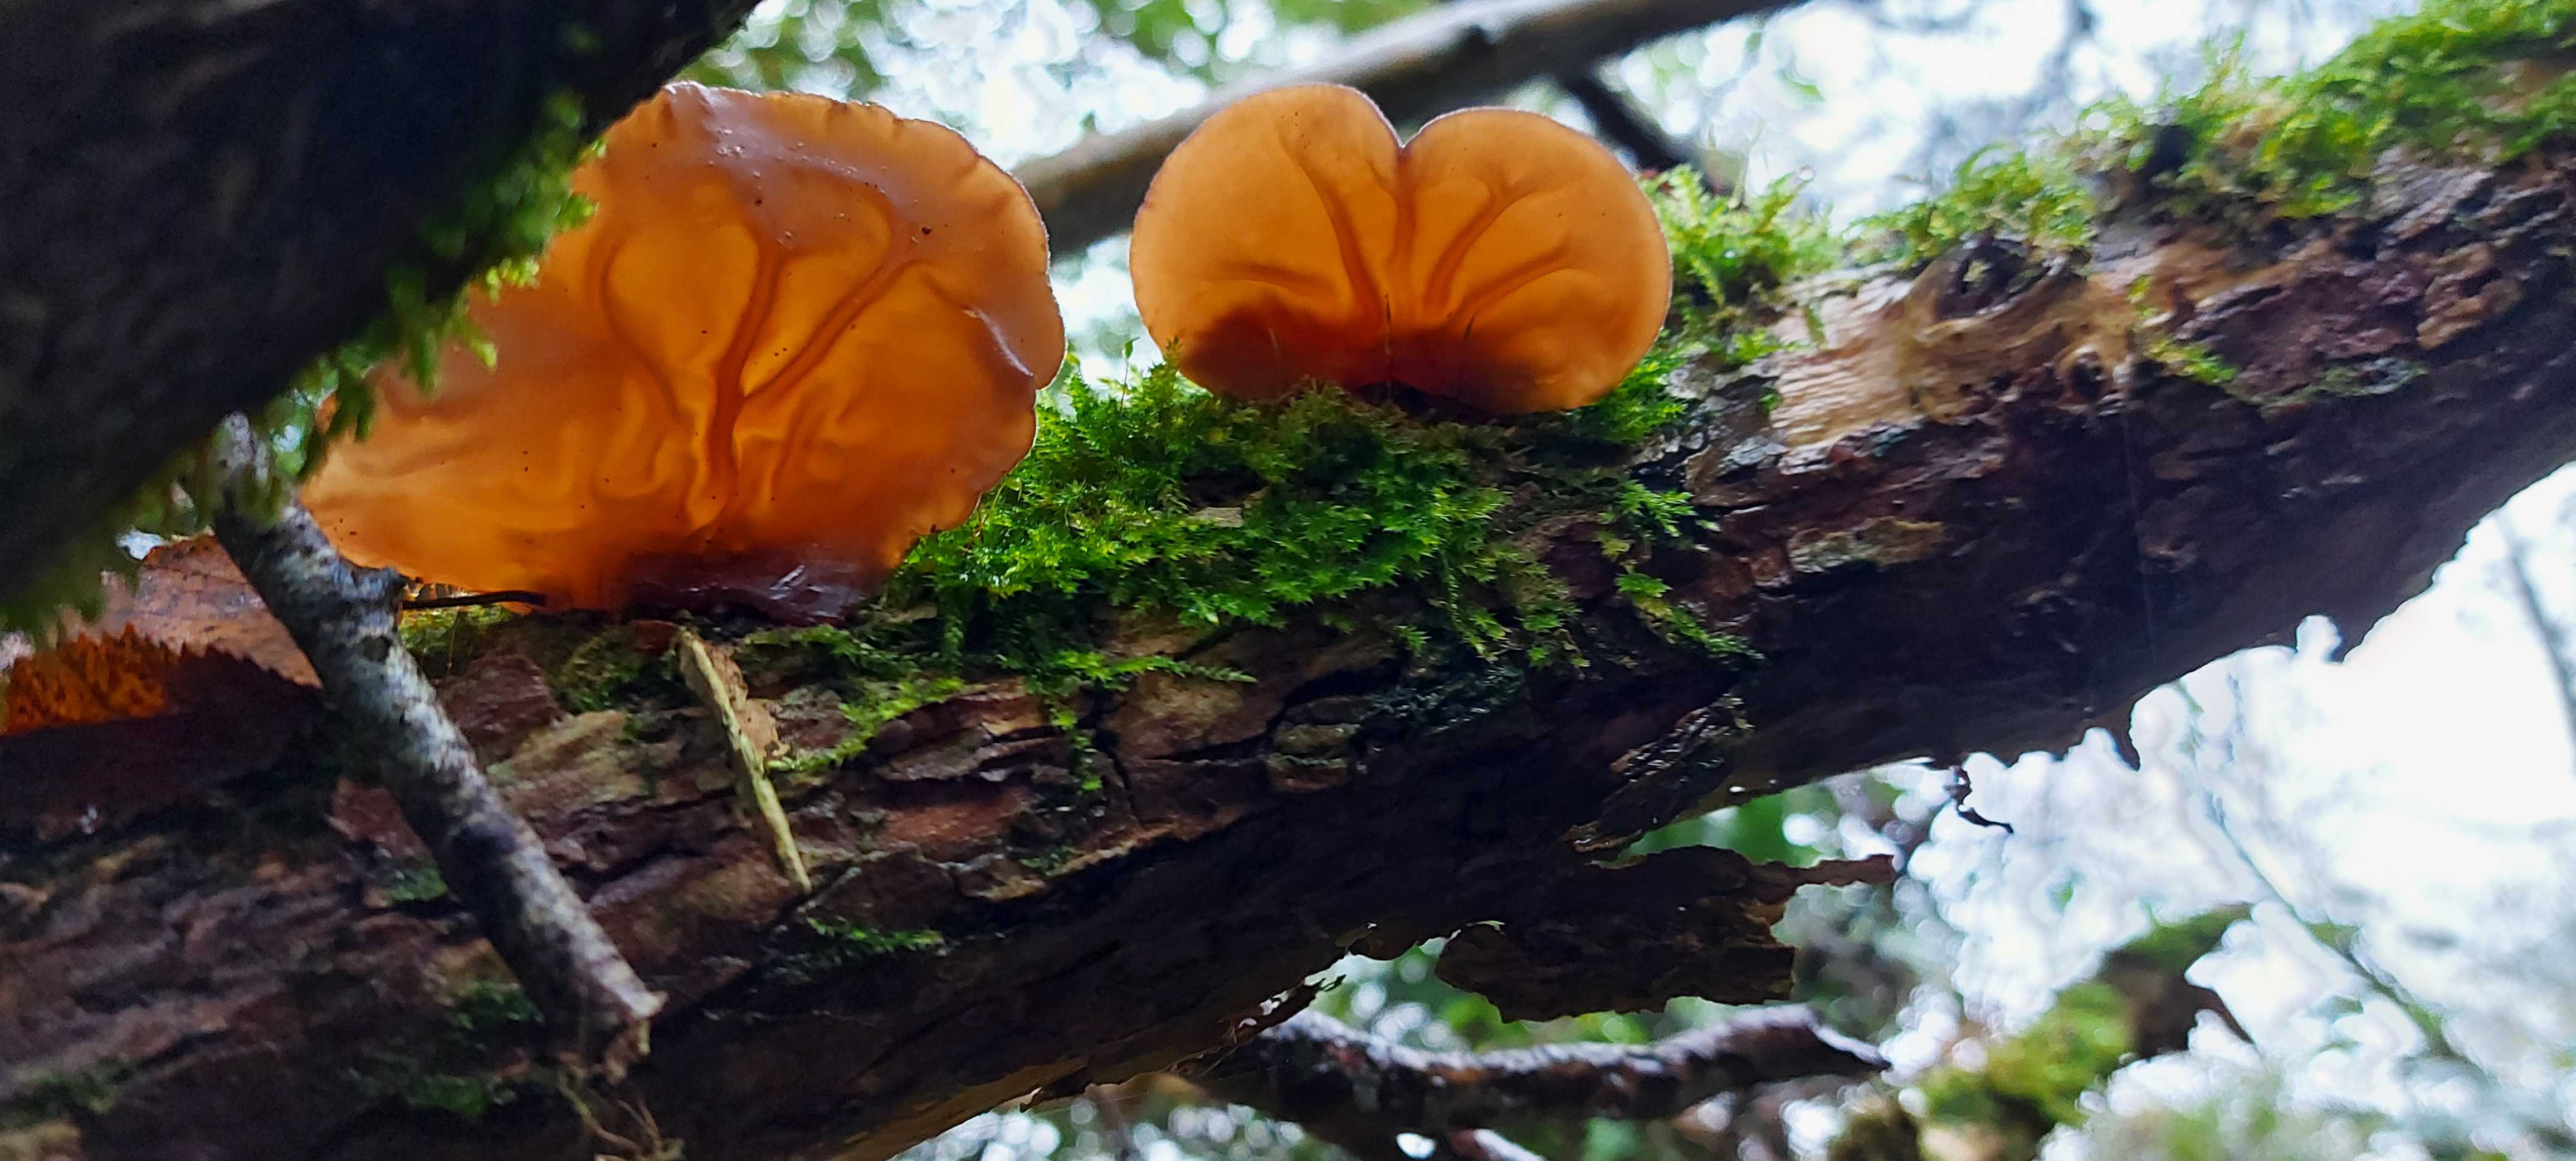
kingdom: Fungi
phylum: Basidiomycota
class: Agaricomycetes
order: Auriculariales
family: Auriculariaceae
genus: Auricularia
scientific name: Auricularia auricula-judae
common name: almindelig judasøre
